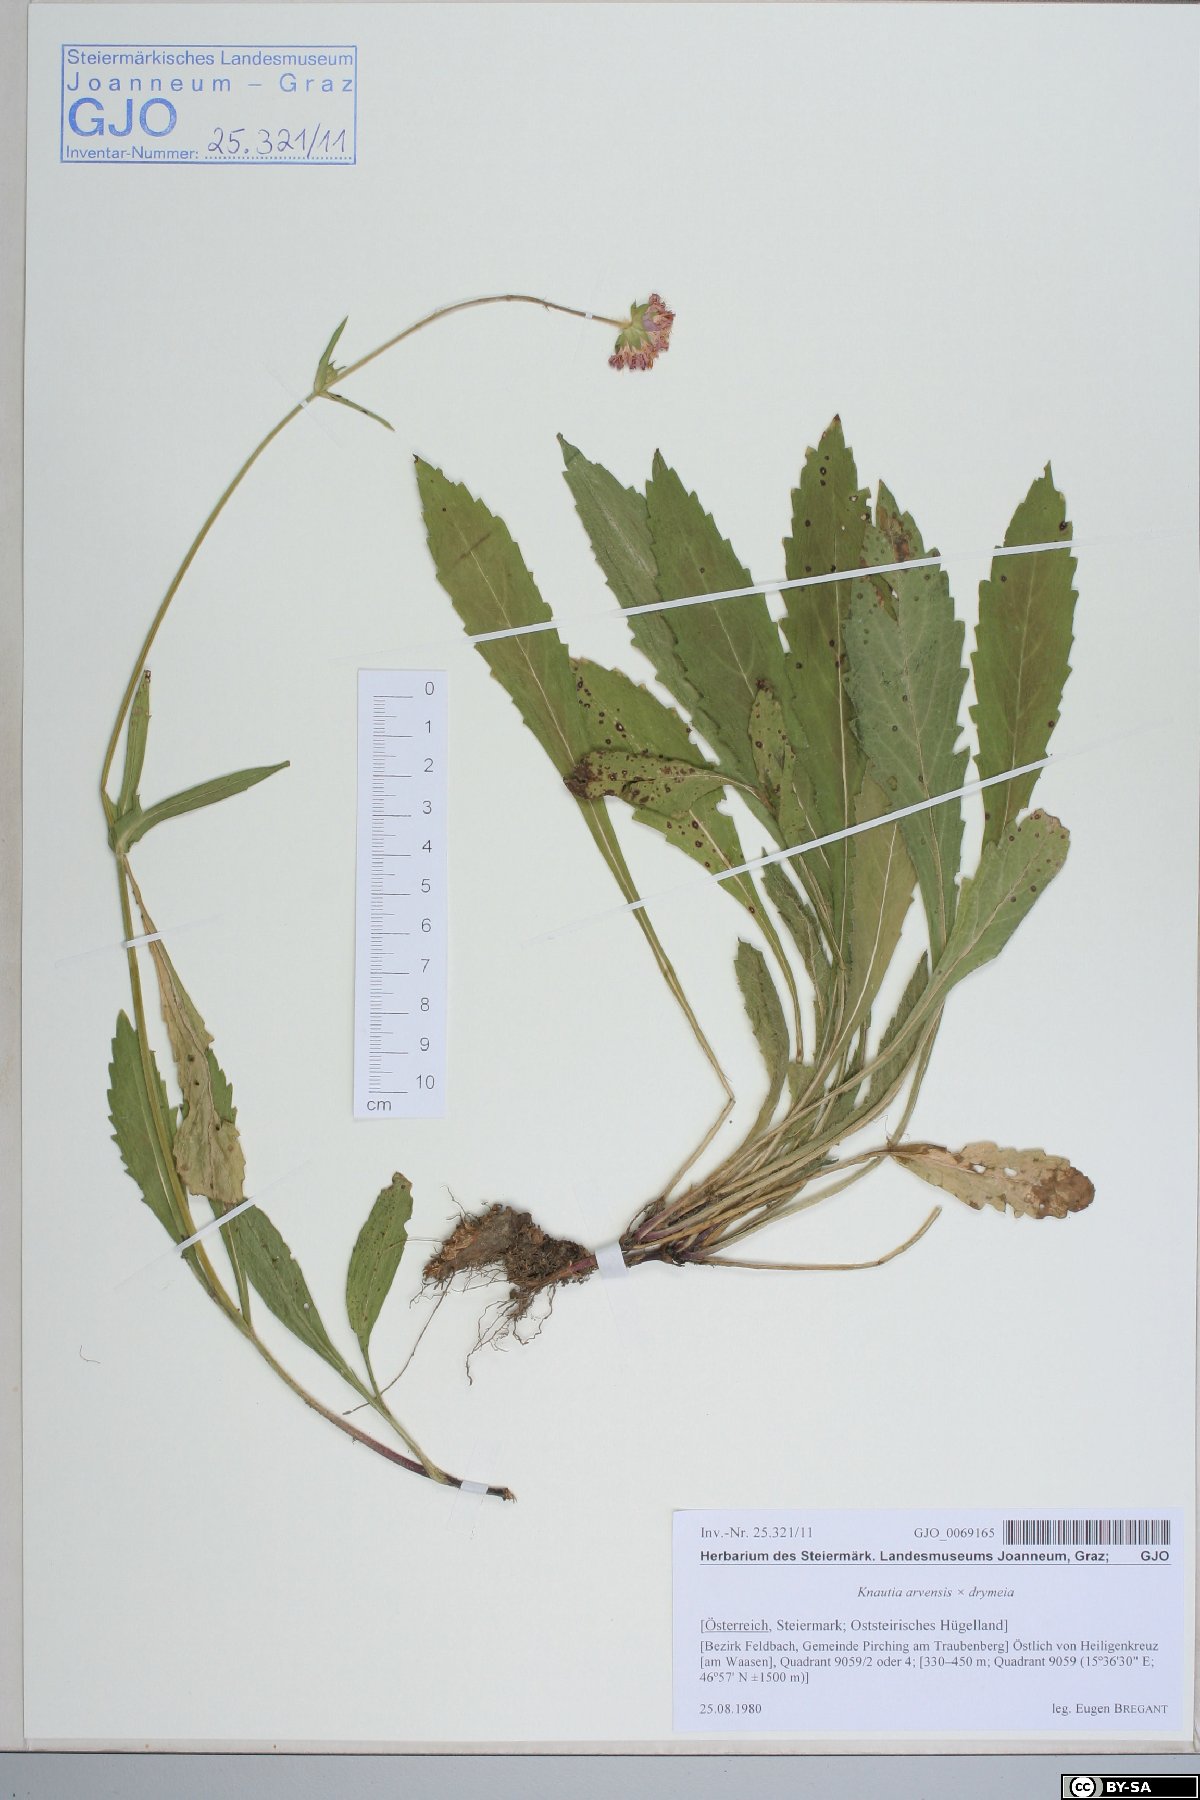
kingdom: Plantae
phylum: Tracheophyta
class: Magnoliopsida
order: Dipsacales
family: Dipsacaceae
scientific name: Dipsacaceae
